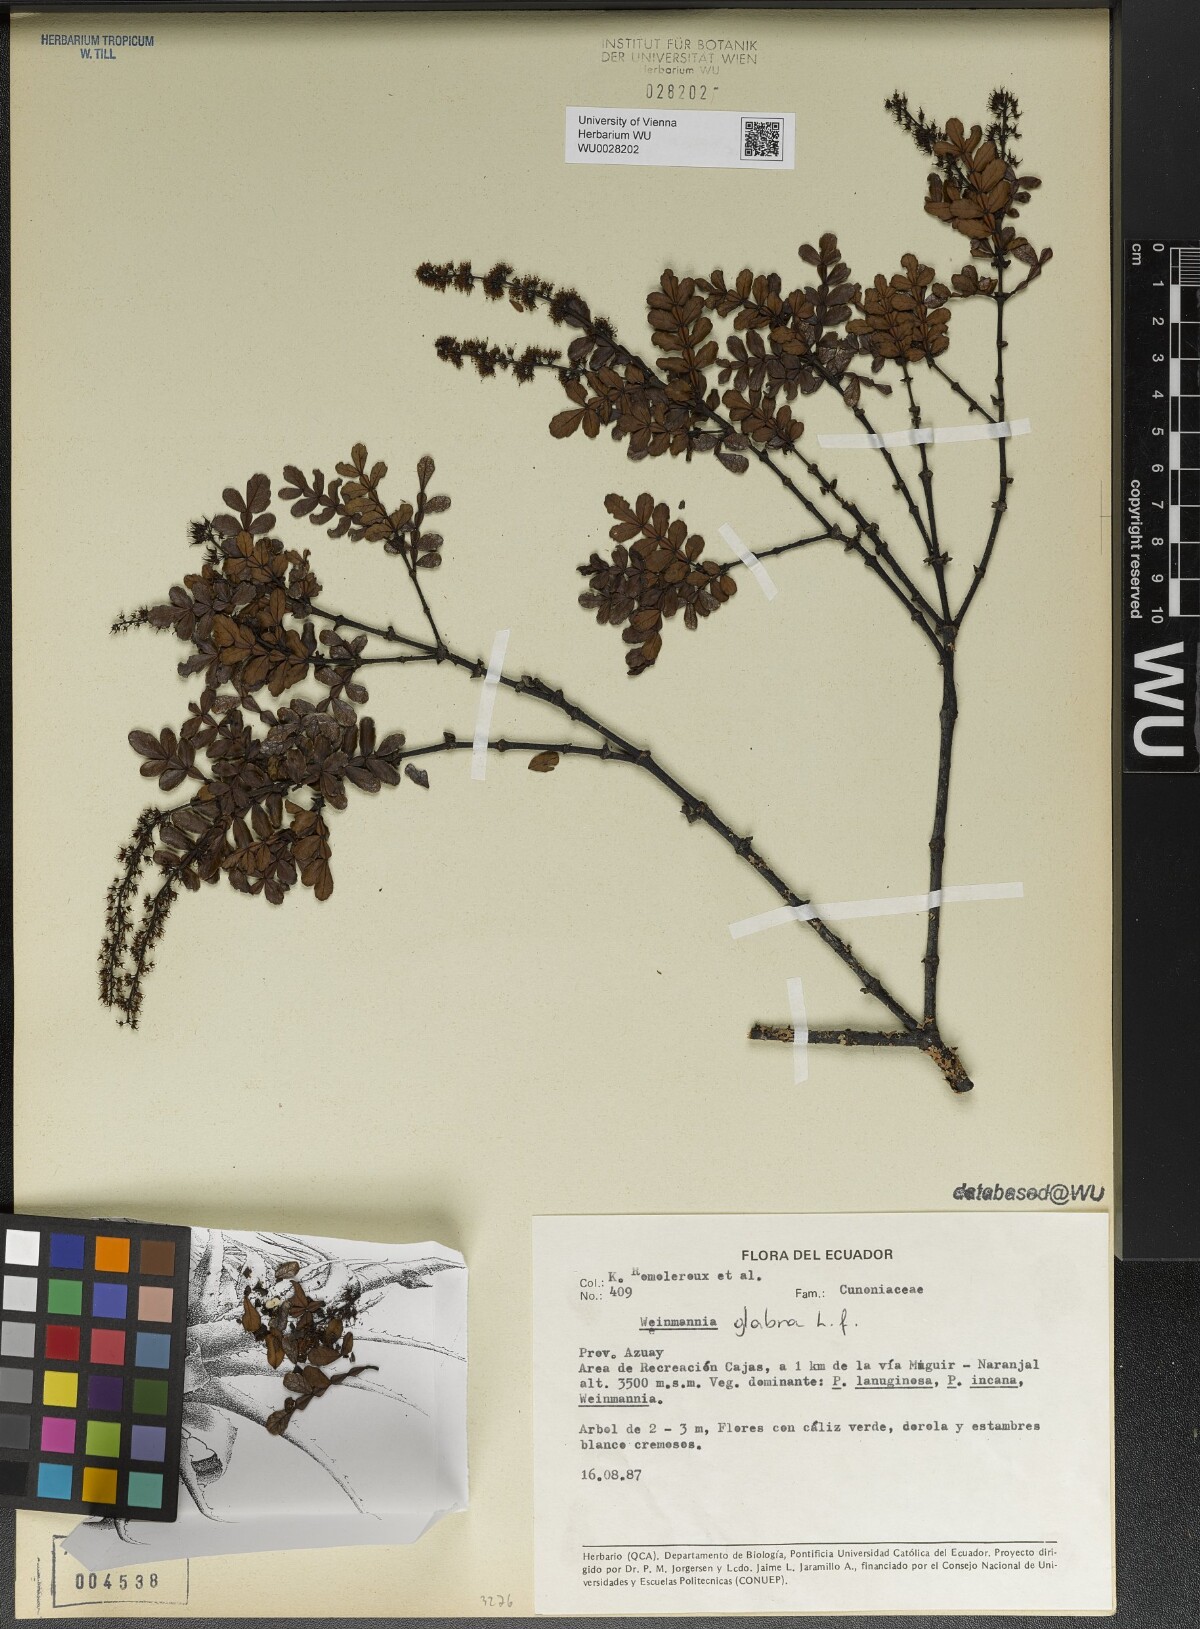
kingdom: Plantae
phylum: Tracheophyta
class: Magnoliopsida
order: Oxalidales
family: Cunoniaceae
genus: Weinmannia
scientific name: Weinmannia pinnata
